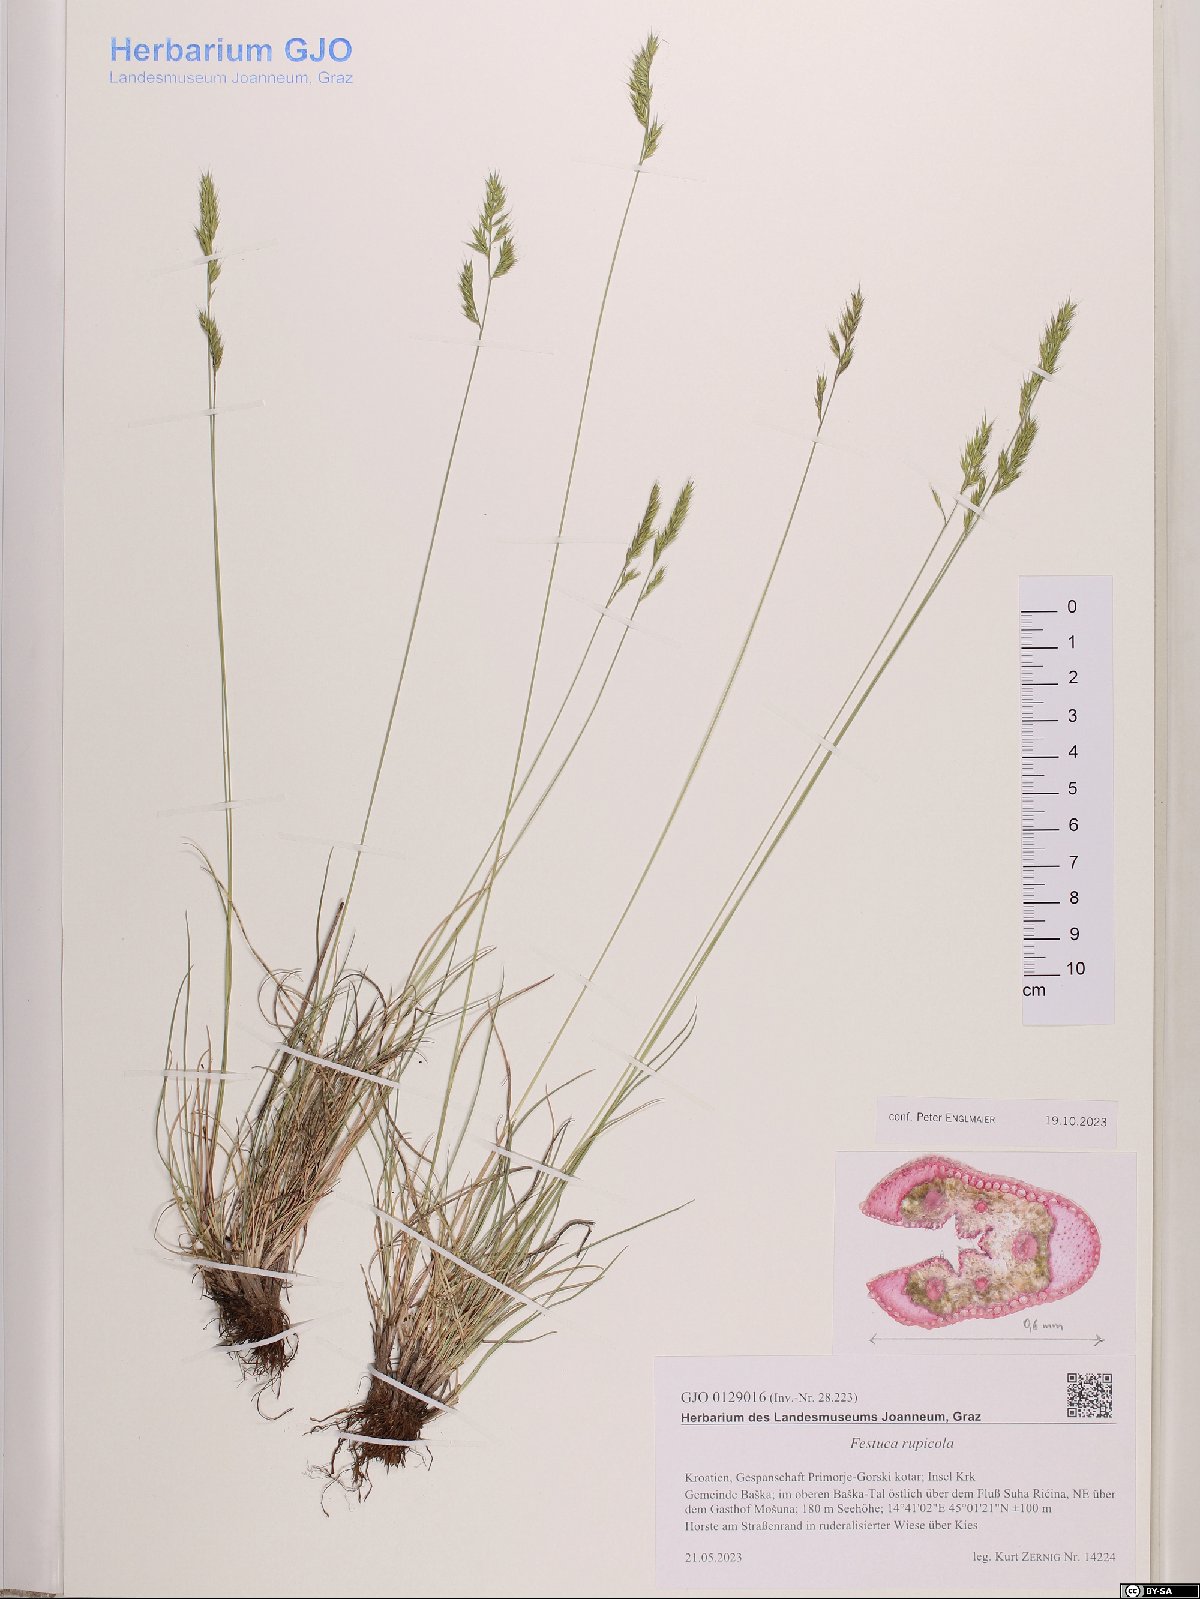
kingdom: Plantae
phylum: Tracheophyta
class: Liliopsida
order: Poales
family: Poaceae
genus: Festuca
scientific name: Festuca rupicola
